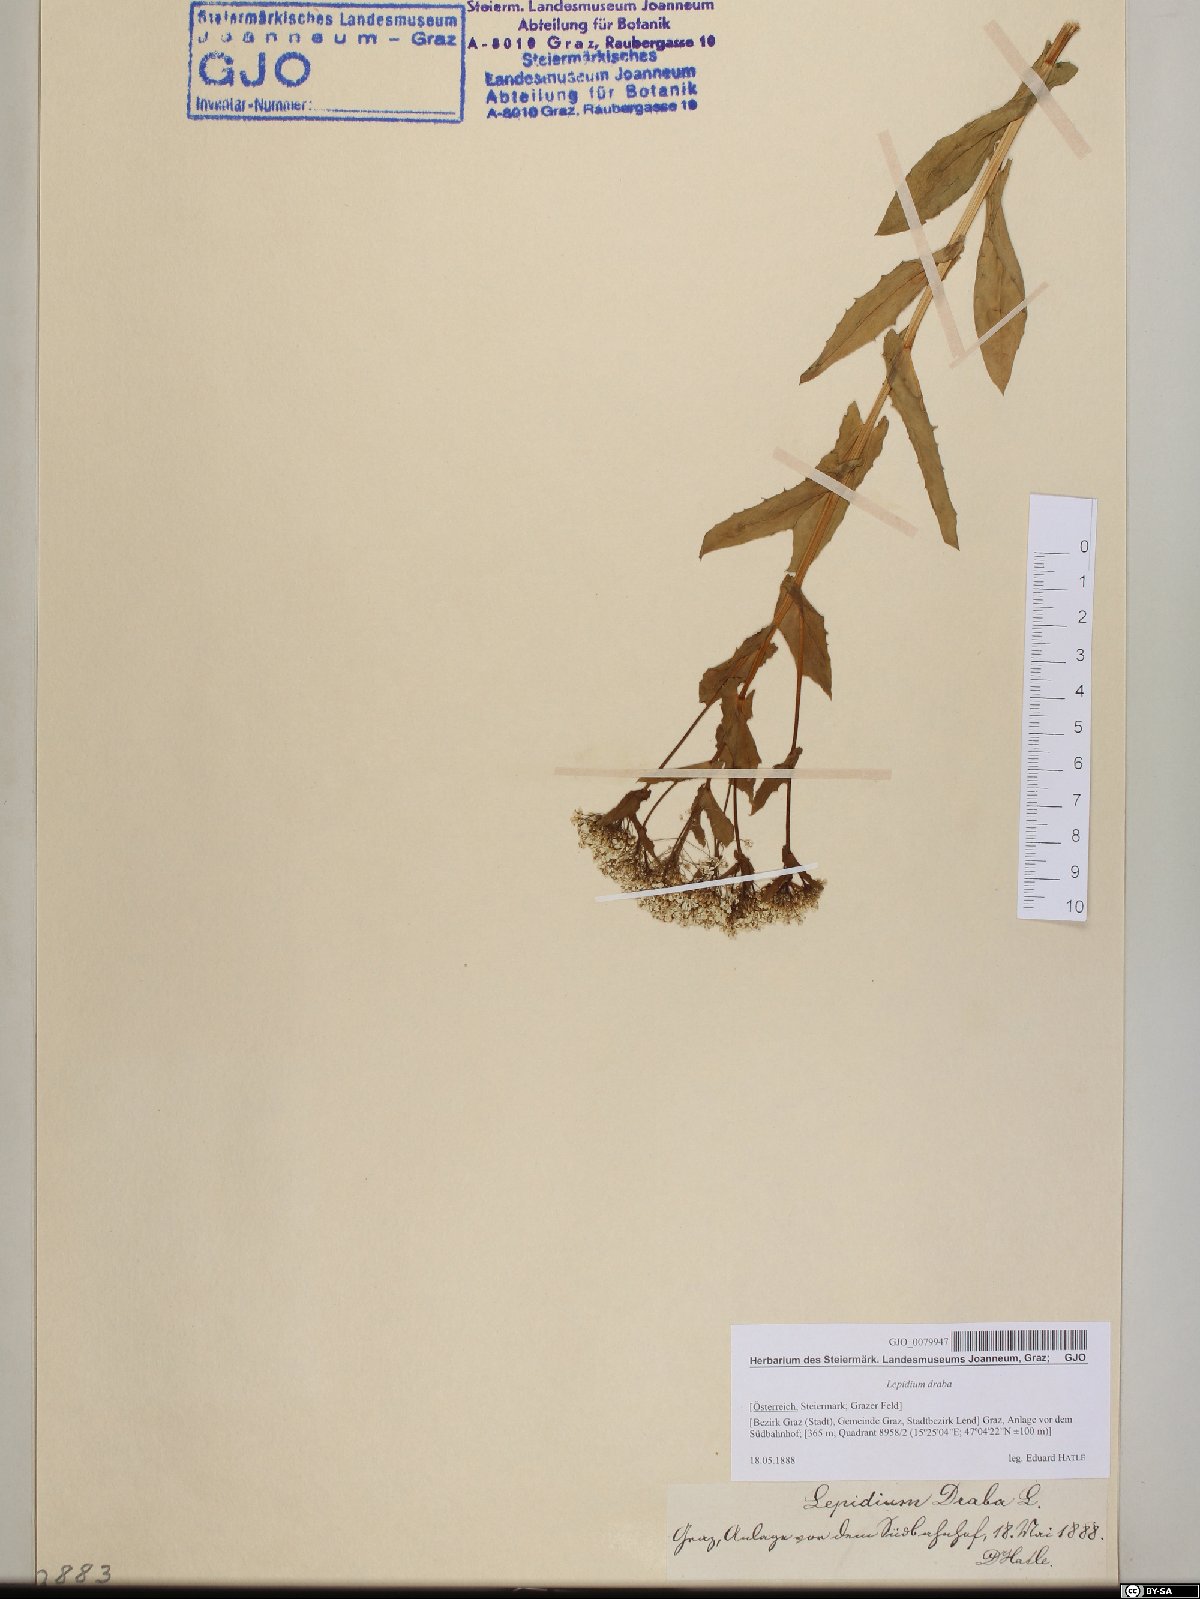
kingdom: Plantae
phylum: Tracheophyta
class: Magnoliopsida
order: Brassicales
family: Brassicaceae
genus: Lepidium
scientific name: Lepidium draba
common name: Hoary cress
